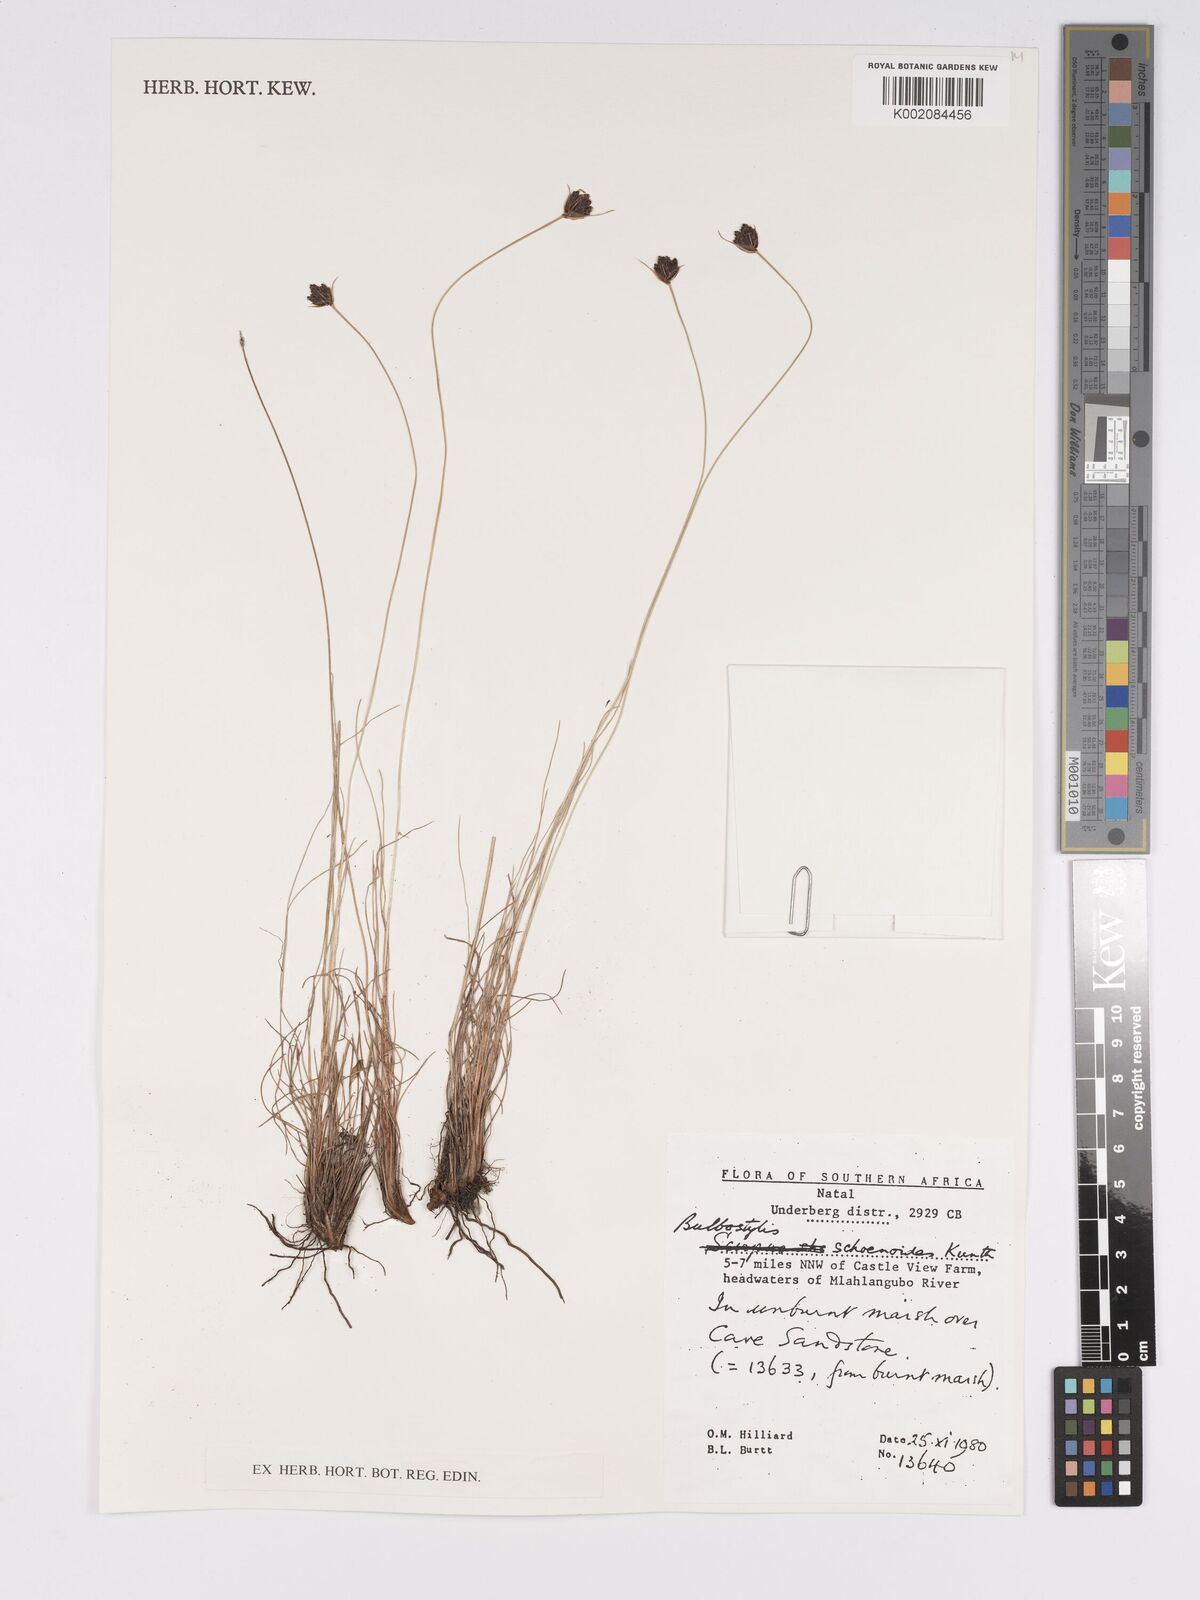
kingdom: Plantae
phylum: Tracheophyta
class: Liliopsida
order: Poales
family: Cyperaceae
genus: Bulbostylis
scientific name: Bulbostylis schoenoides
